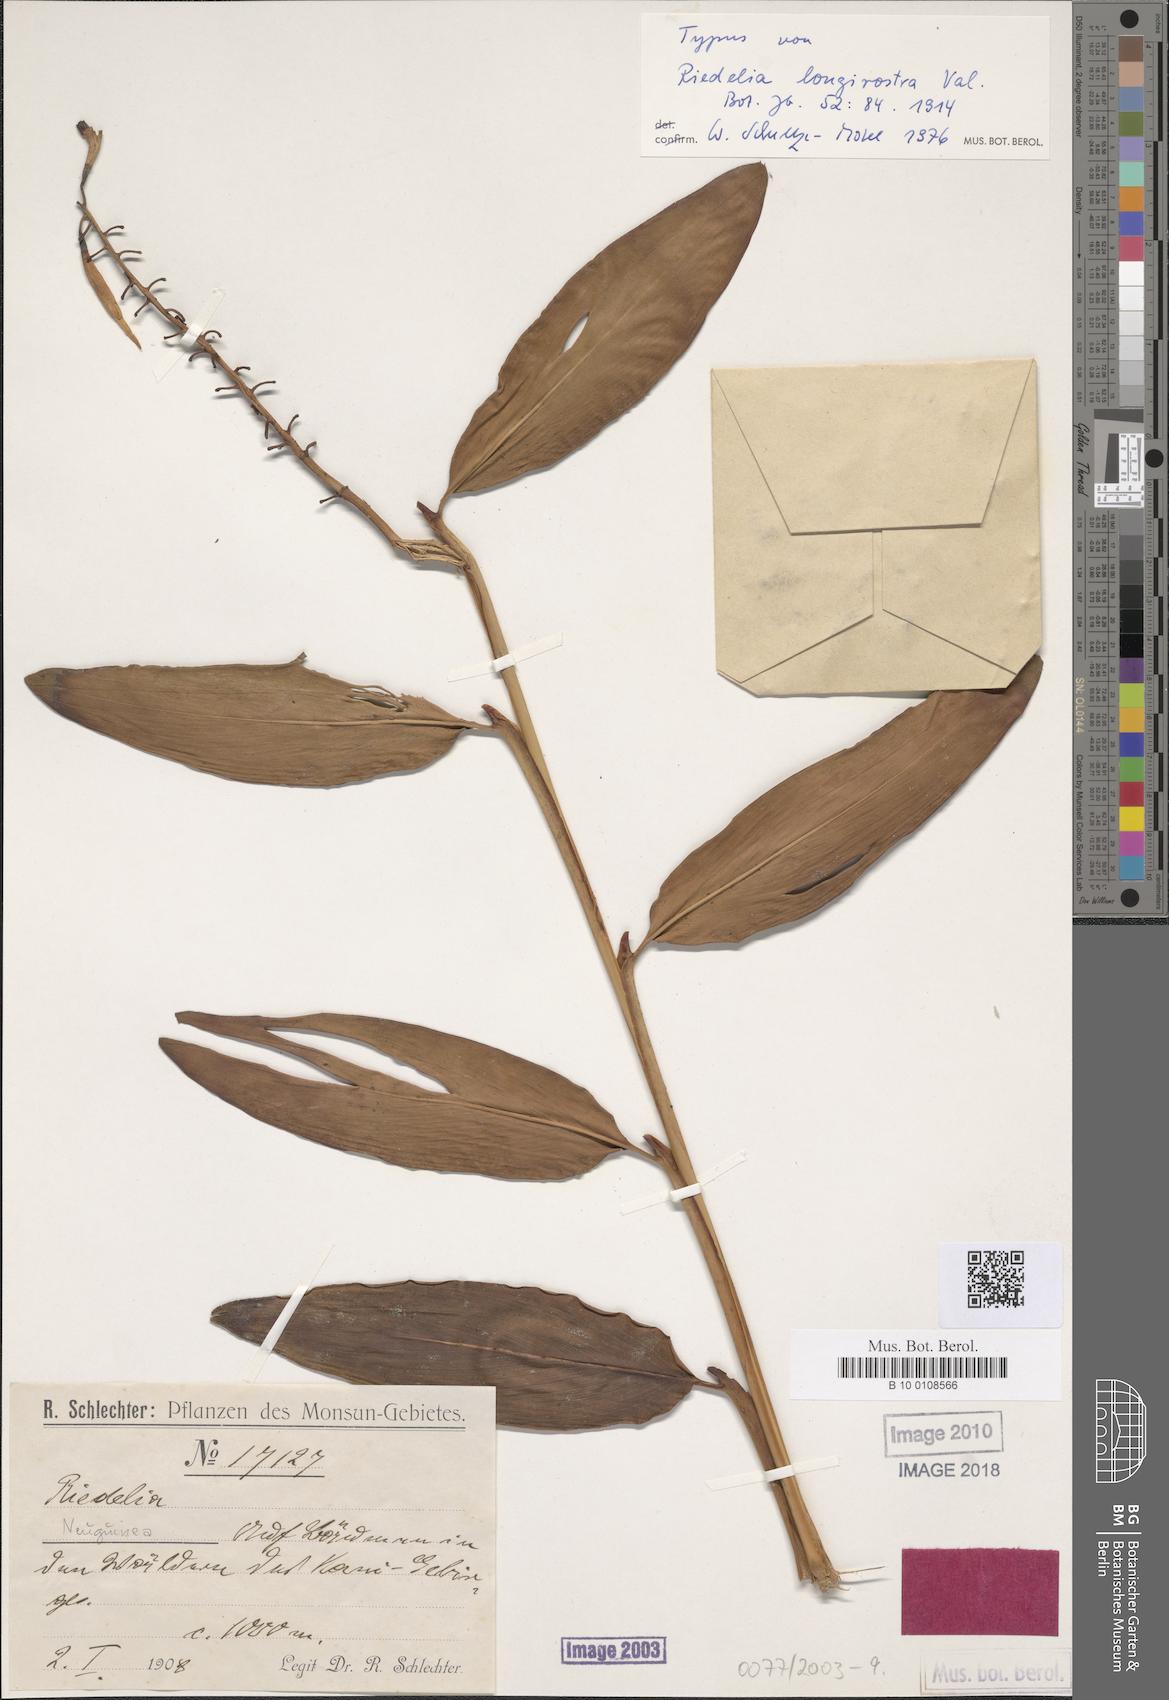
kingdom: Plantae
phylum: Tracheophyta
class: Liliopsida
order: Zingiberales
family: Zingiberaceae
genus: Riedelia
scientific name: Riedelia longirostra
